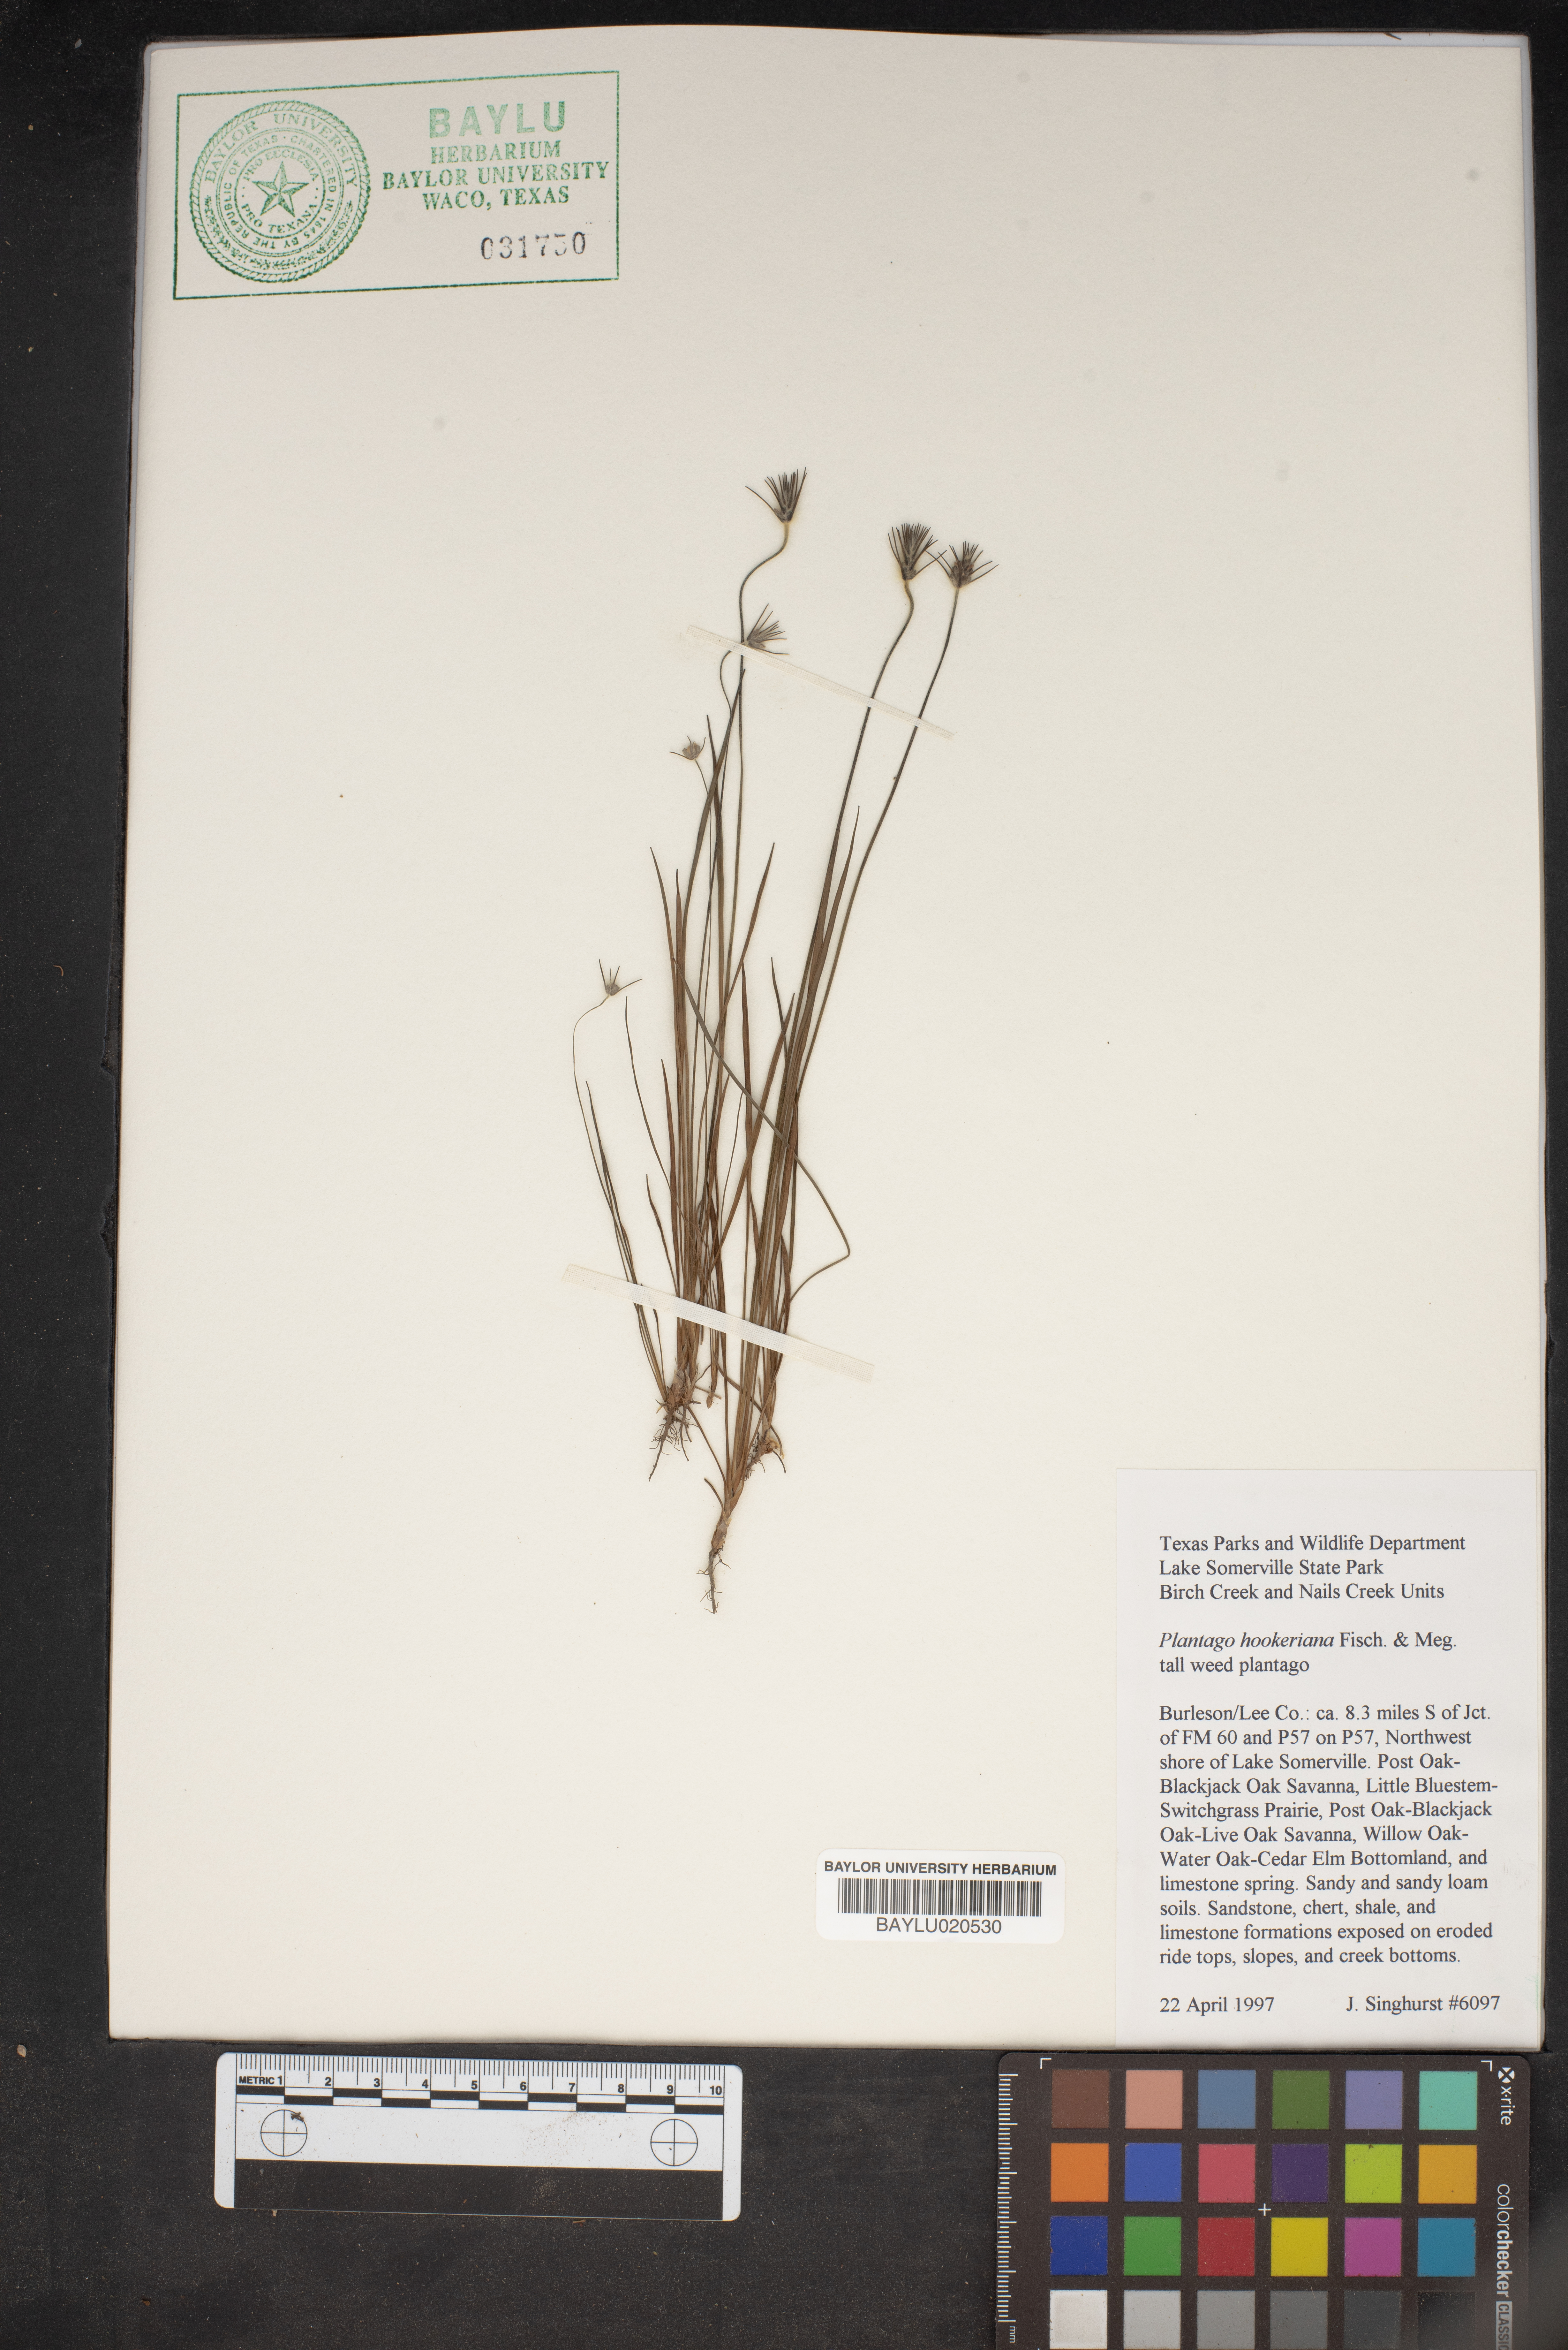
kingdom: Plantae
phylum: Tracheophyta
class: Magnoliopsida
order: Lamiales
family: Plantaginaceae
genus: Plantago
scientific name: Plantago hookeriana
